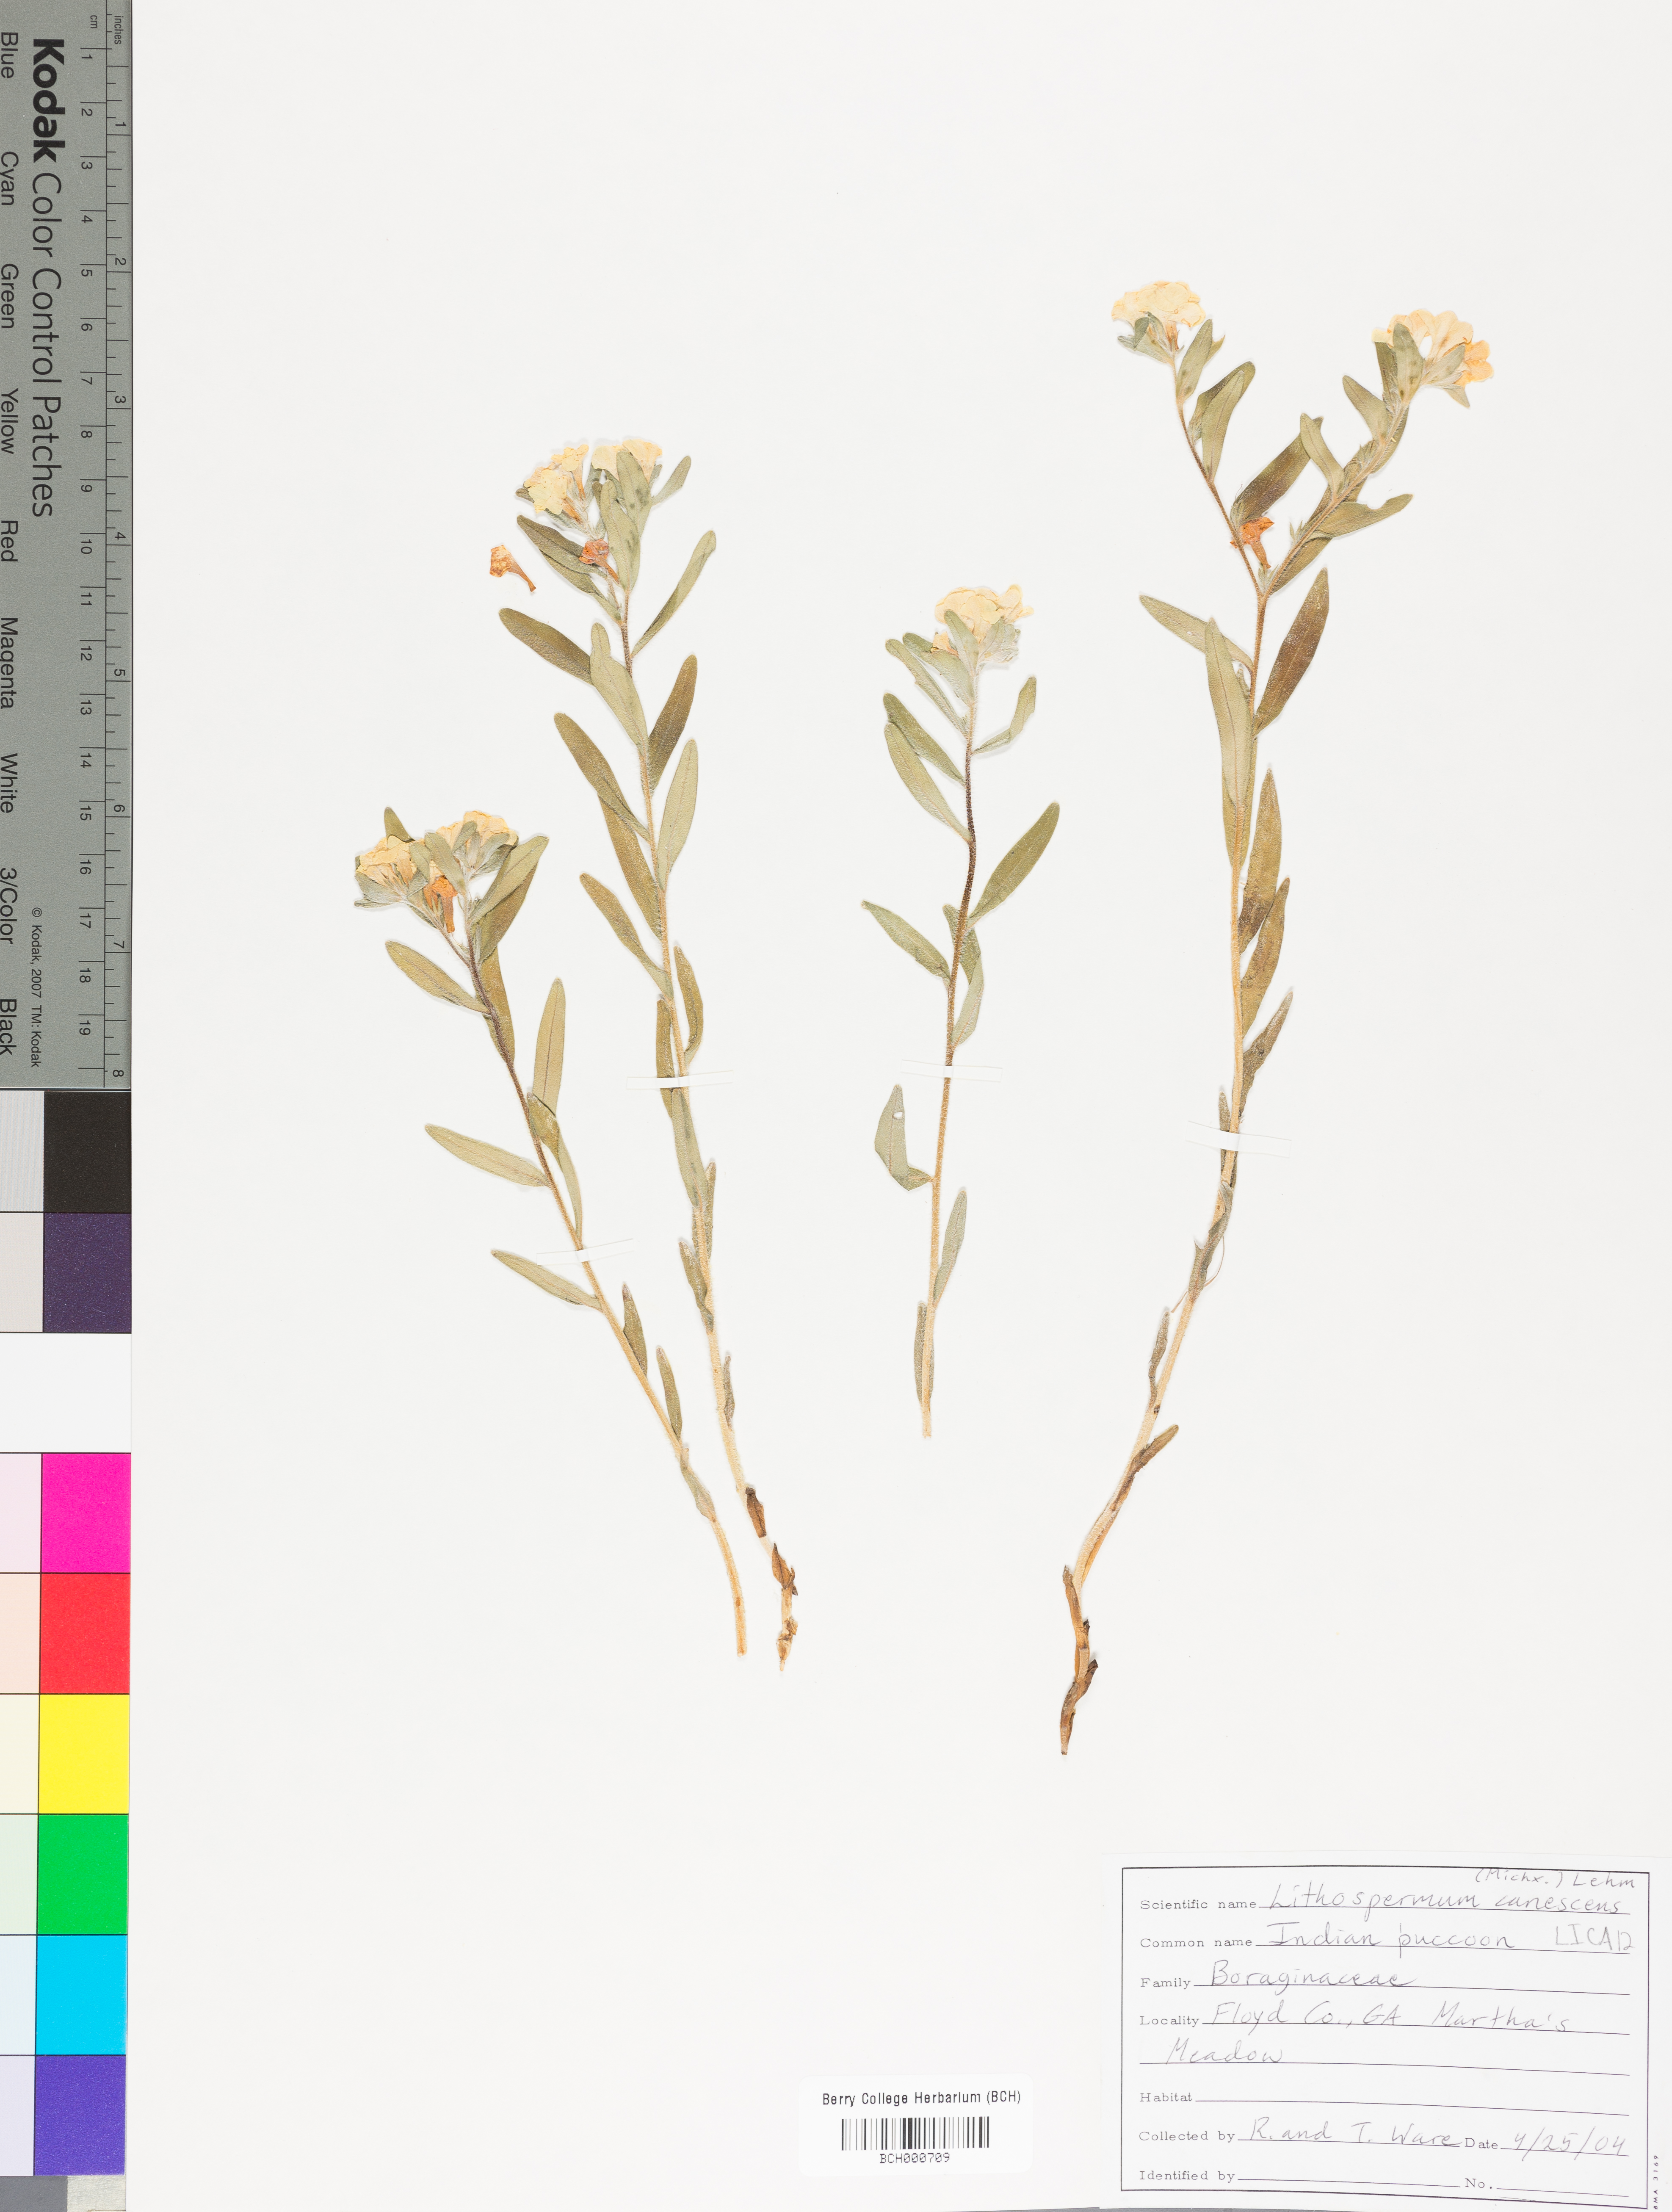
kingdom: Plantae
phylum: Tracheophyta
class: Magnoliopsida
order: Boraginales
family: Boraginaceae
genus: Lithospermum
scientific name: Lithospermum canescens
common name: Hoary puccoon
